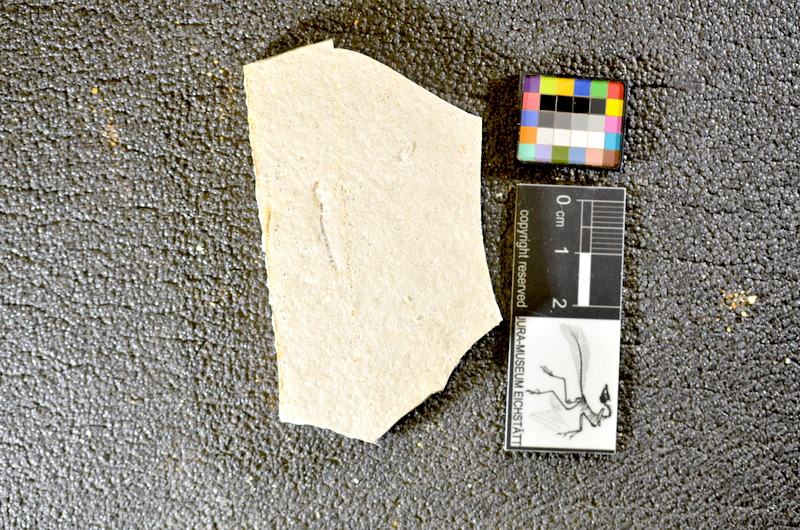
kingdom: Animalia
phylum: Chordata
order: Salmoniformes
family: Orthogonikleithridae
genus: Orthogonikleithrus
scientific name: Orthogonikleithrus hoelli
